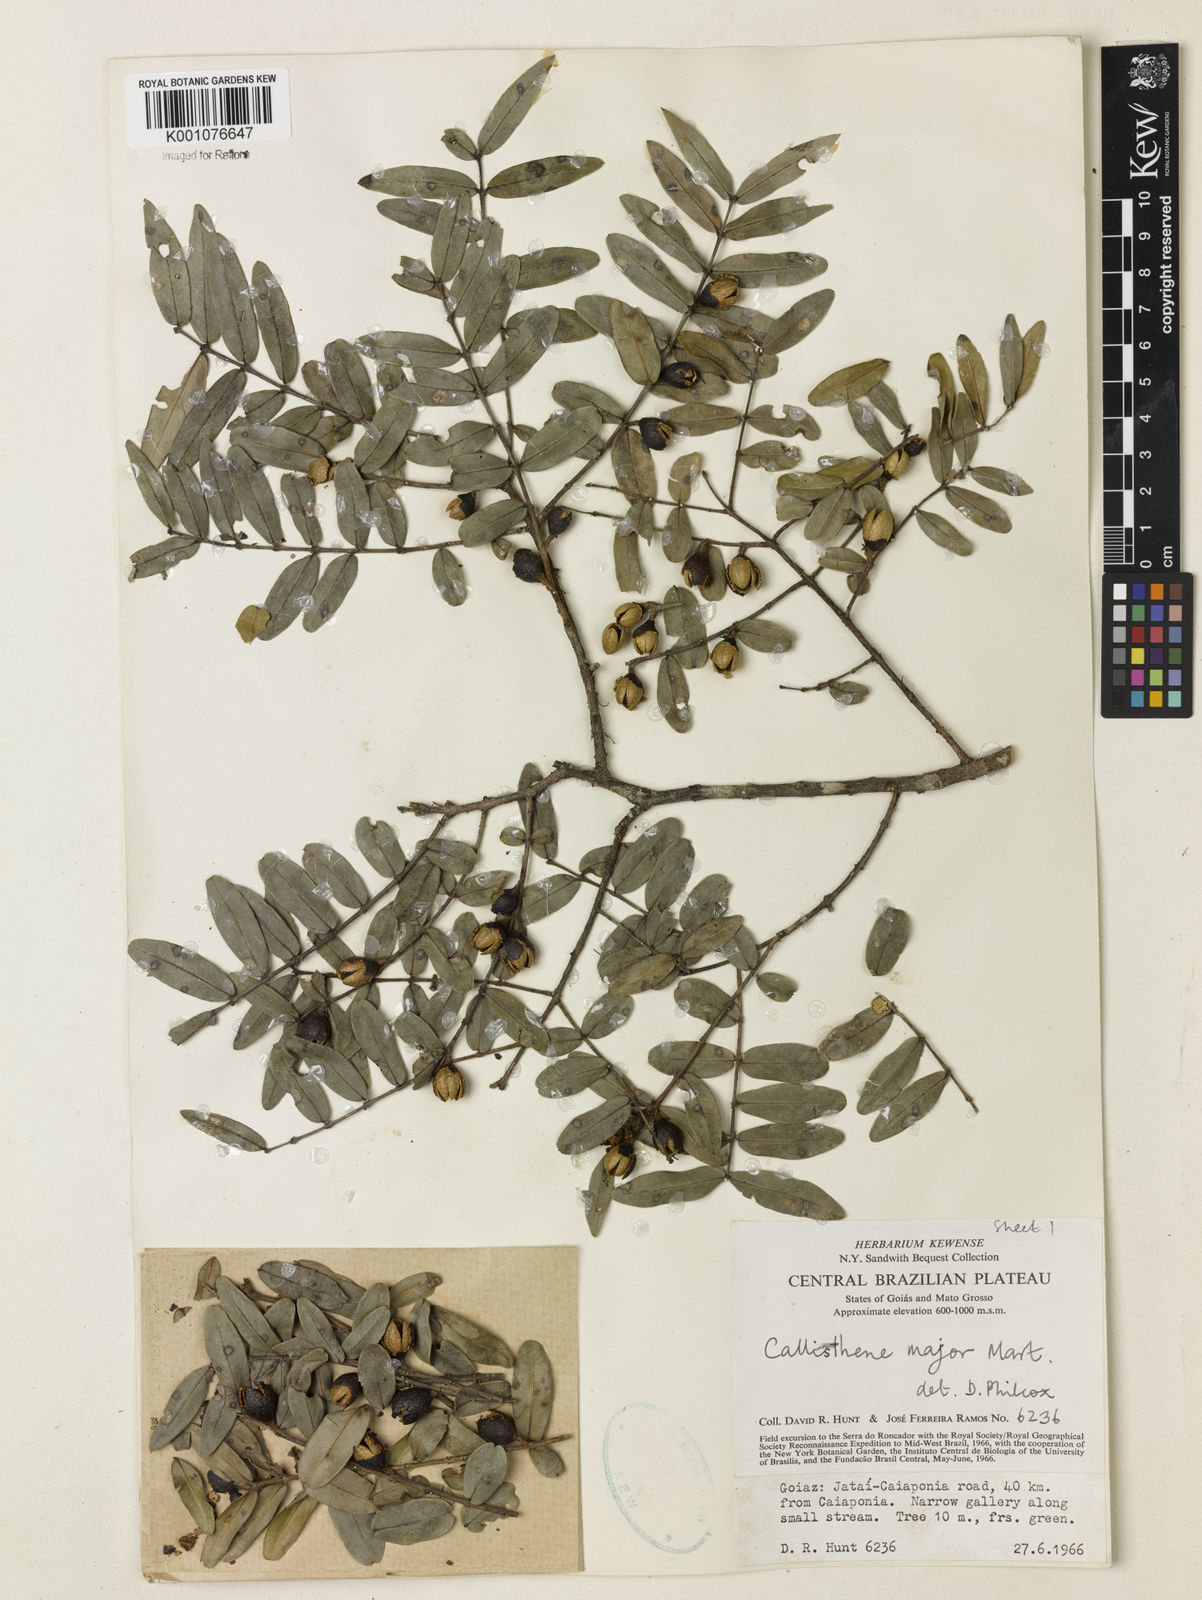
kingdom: Plantae
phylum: Tracheophyta
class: Magnoliopsida
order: Myrtales
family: Vochysiaceae
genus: Callisthene
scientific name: Callisthene major
